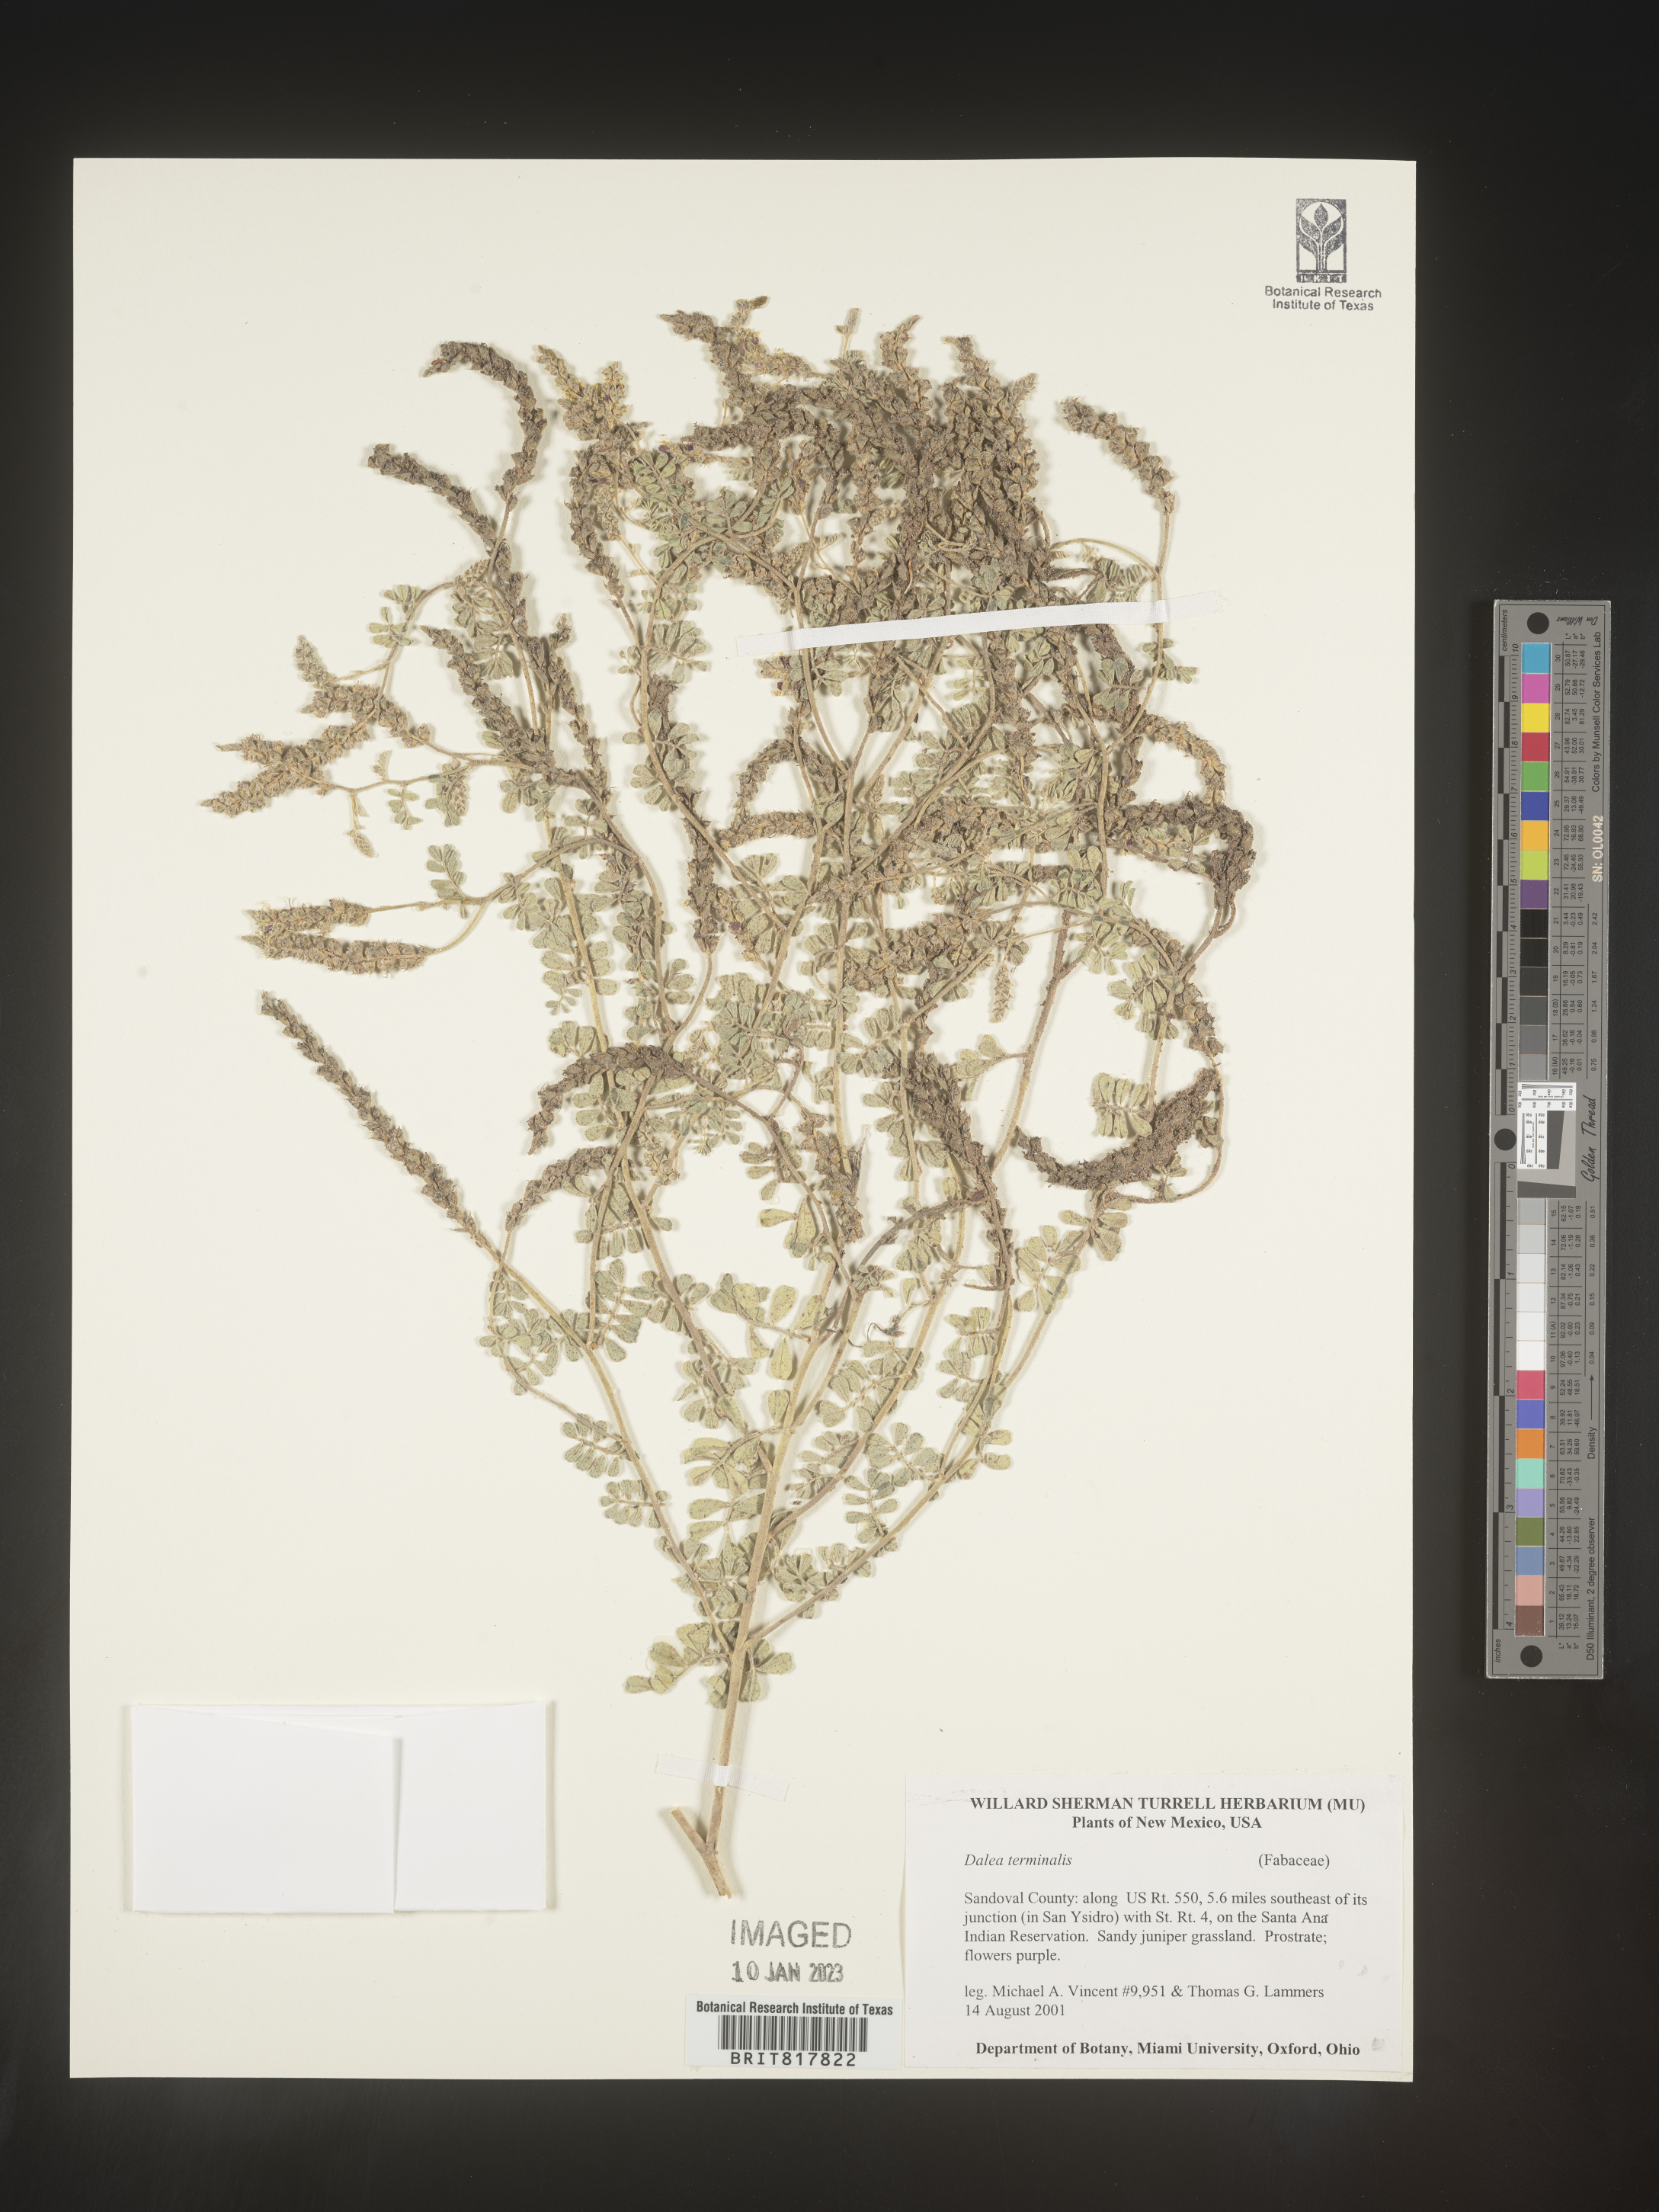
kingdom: Plantae
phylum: Tracheophyta
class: Magnoliopsida
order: Fabales
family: Fabaceae
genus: Dalea
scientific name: Dalea
